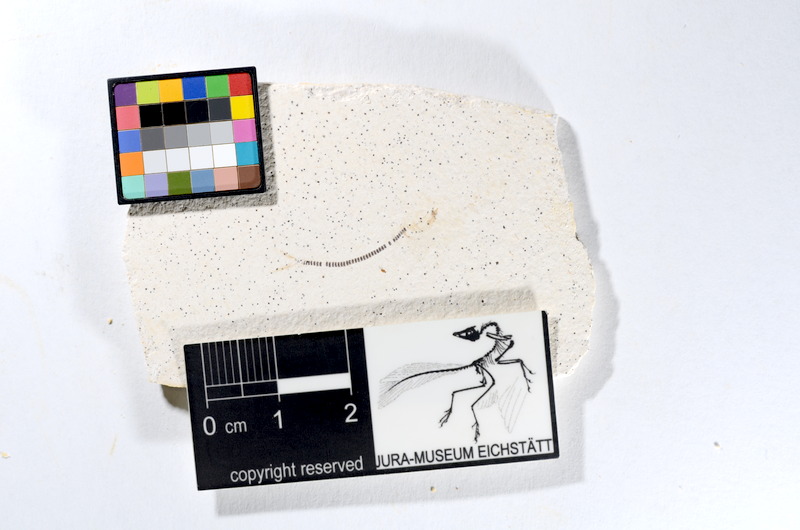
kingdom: Animalia
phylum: Chordata
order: Salmoniformes
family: Orthogonikleithridae
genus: Orthogonikleithrus
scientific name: Orthogonikleithrus hoelli
